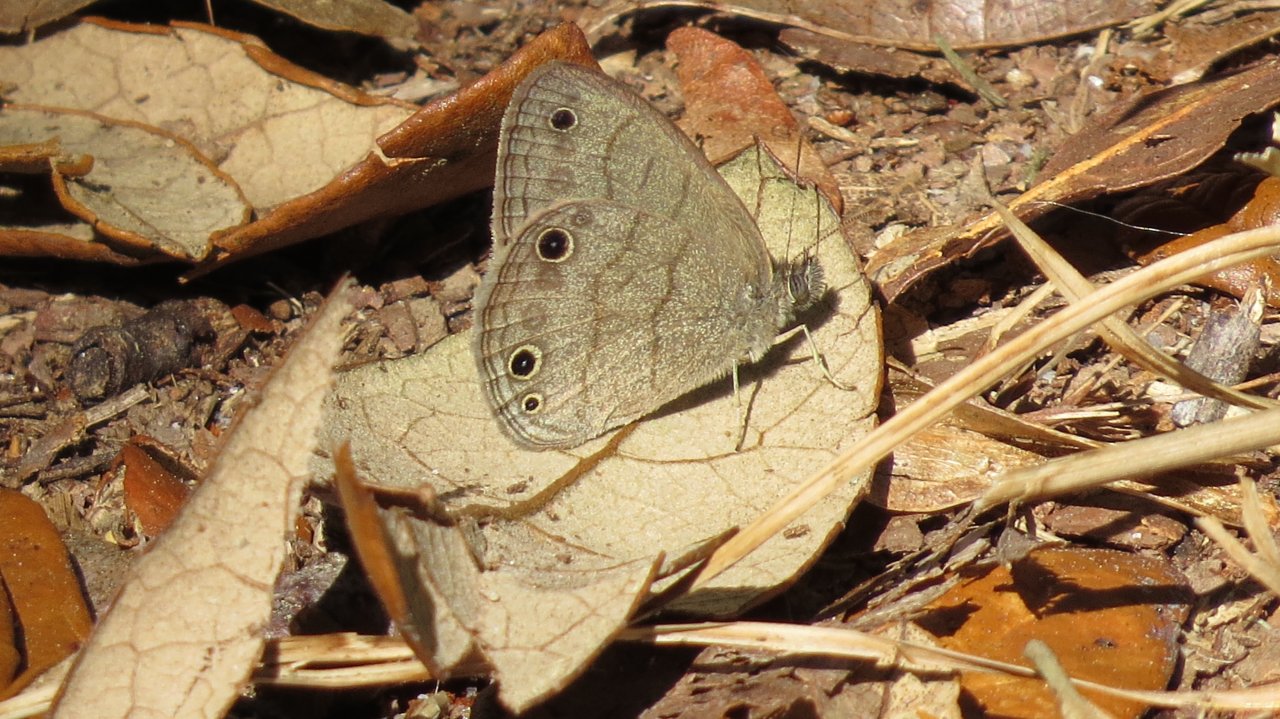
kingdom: Animalia
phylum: Arthropoda
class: Insecta
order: Lepidoptera
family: Nymphalidae
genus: Hermeuptychia
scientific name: Hermeuptychia hermes
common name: Carolina Satyr
